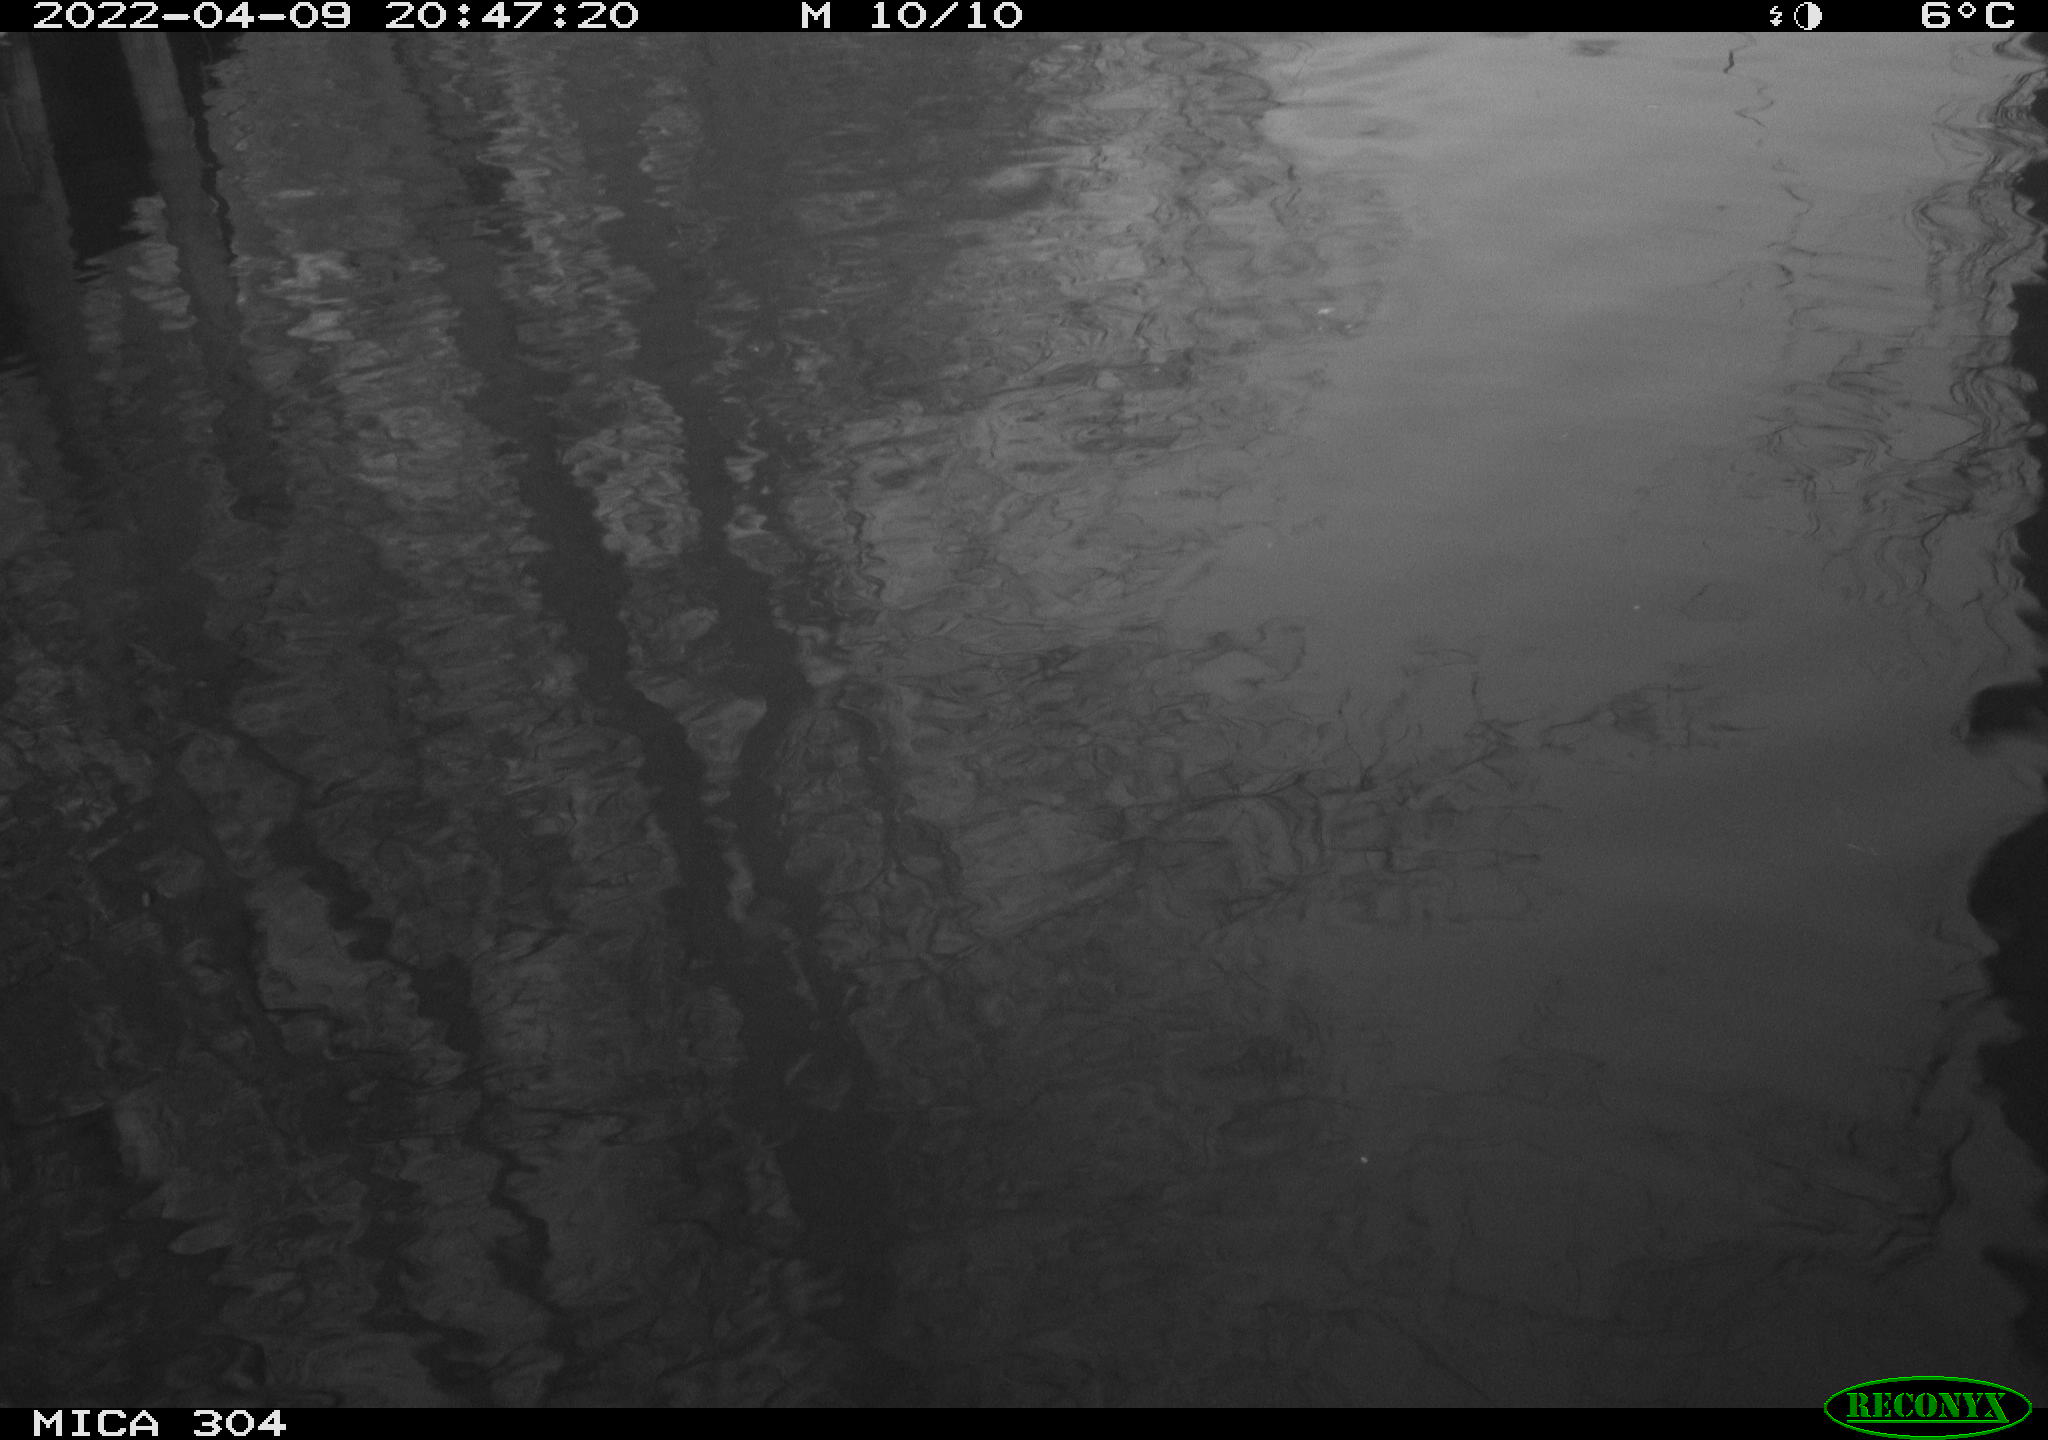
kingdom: Animalia
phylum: Chordata
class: Aves
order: Anseriformes
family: Anatidae
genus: Anas
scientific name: Anas platyrhynchos
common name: Mallard
